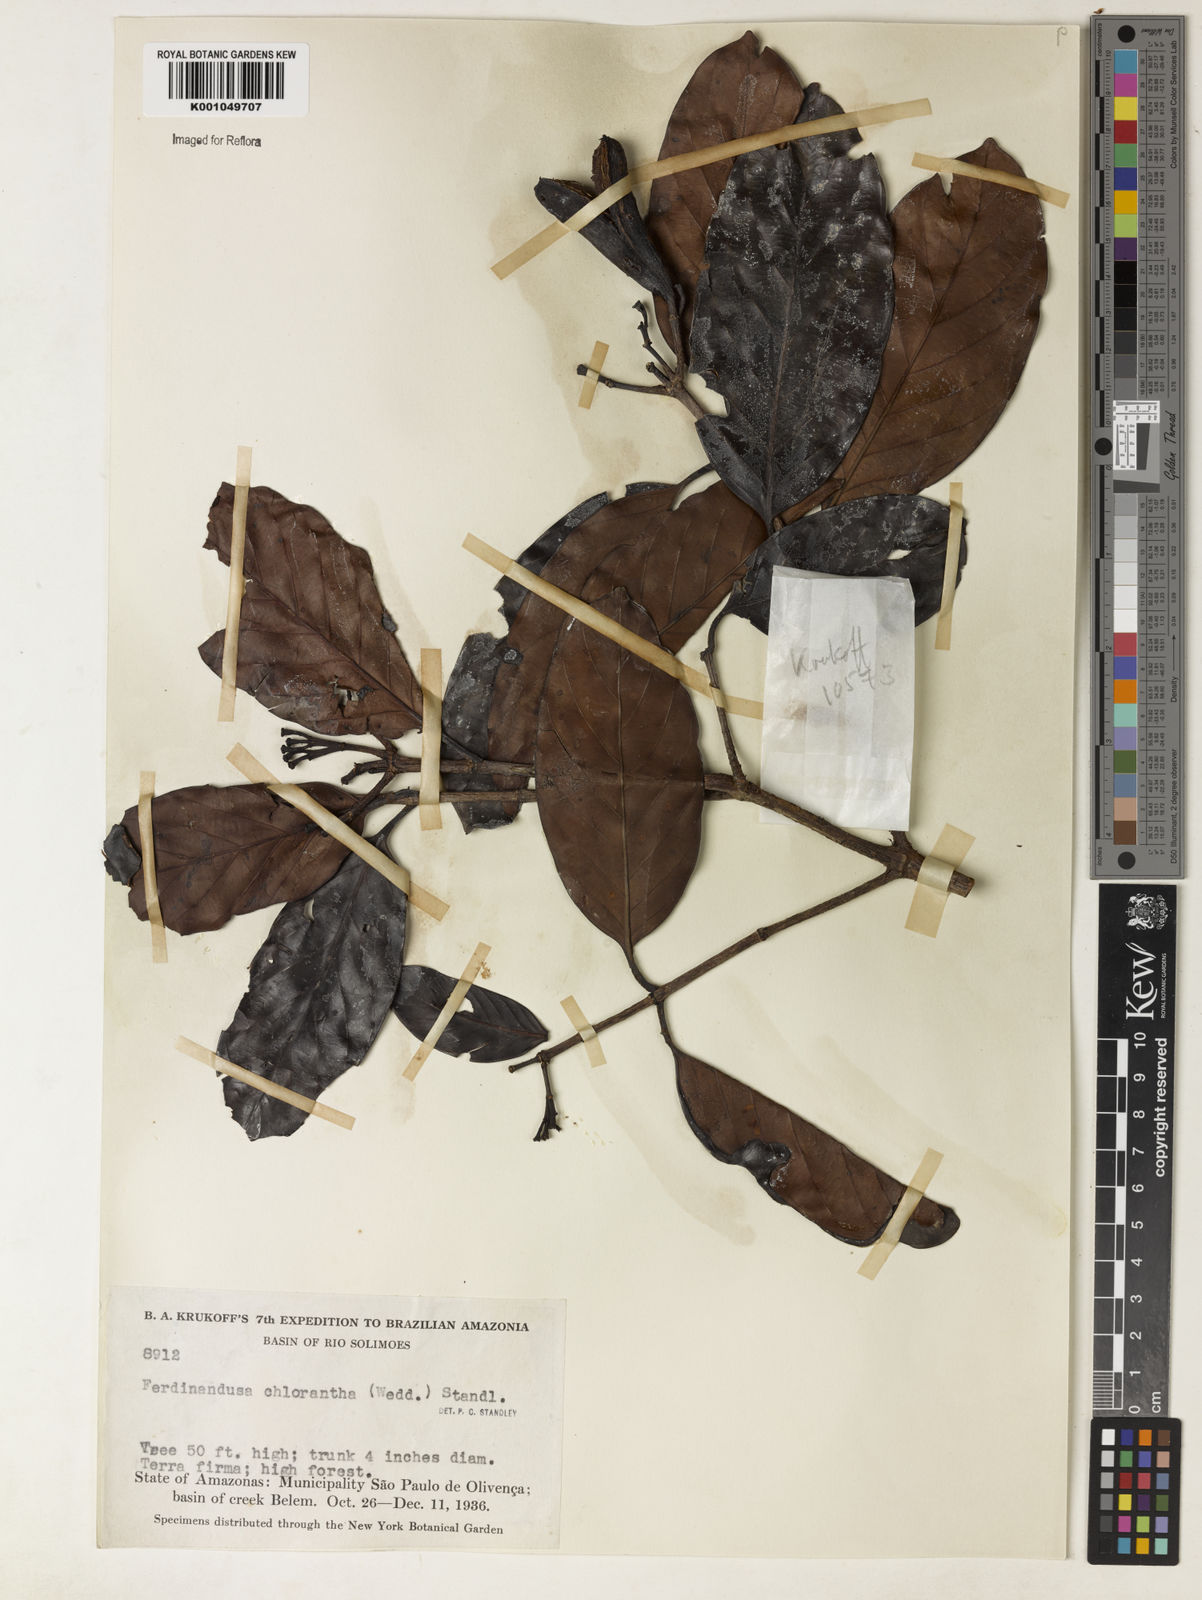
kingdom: Plantae
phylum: Tracheophyta
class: Magnoliopsida
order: Gentianales
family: Rubiaceae
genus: Ferdinandusa
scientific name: Ferdinandusa chlorantha
